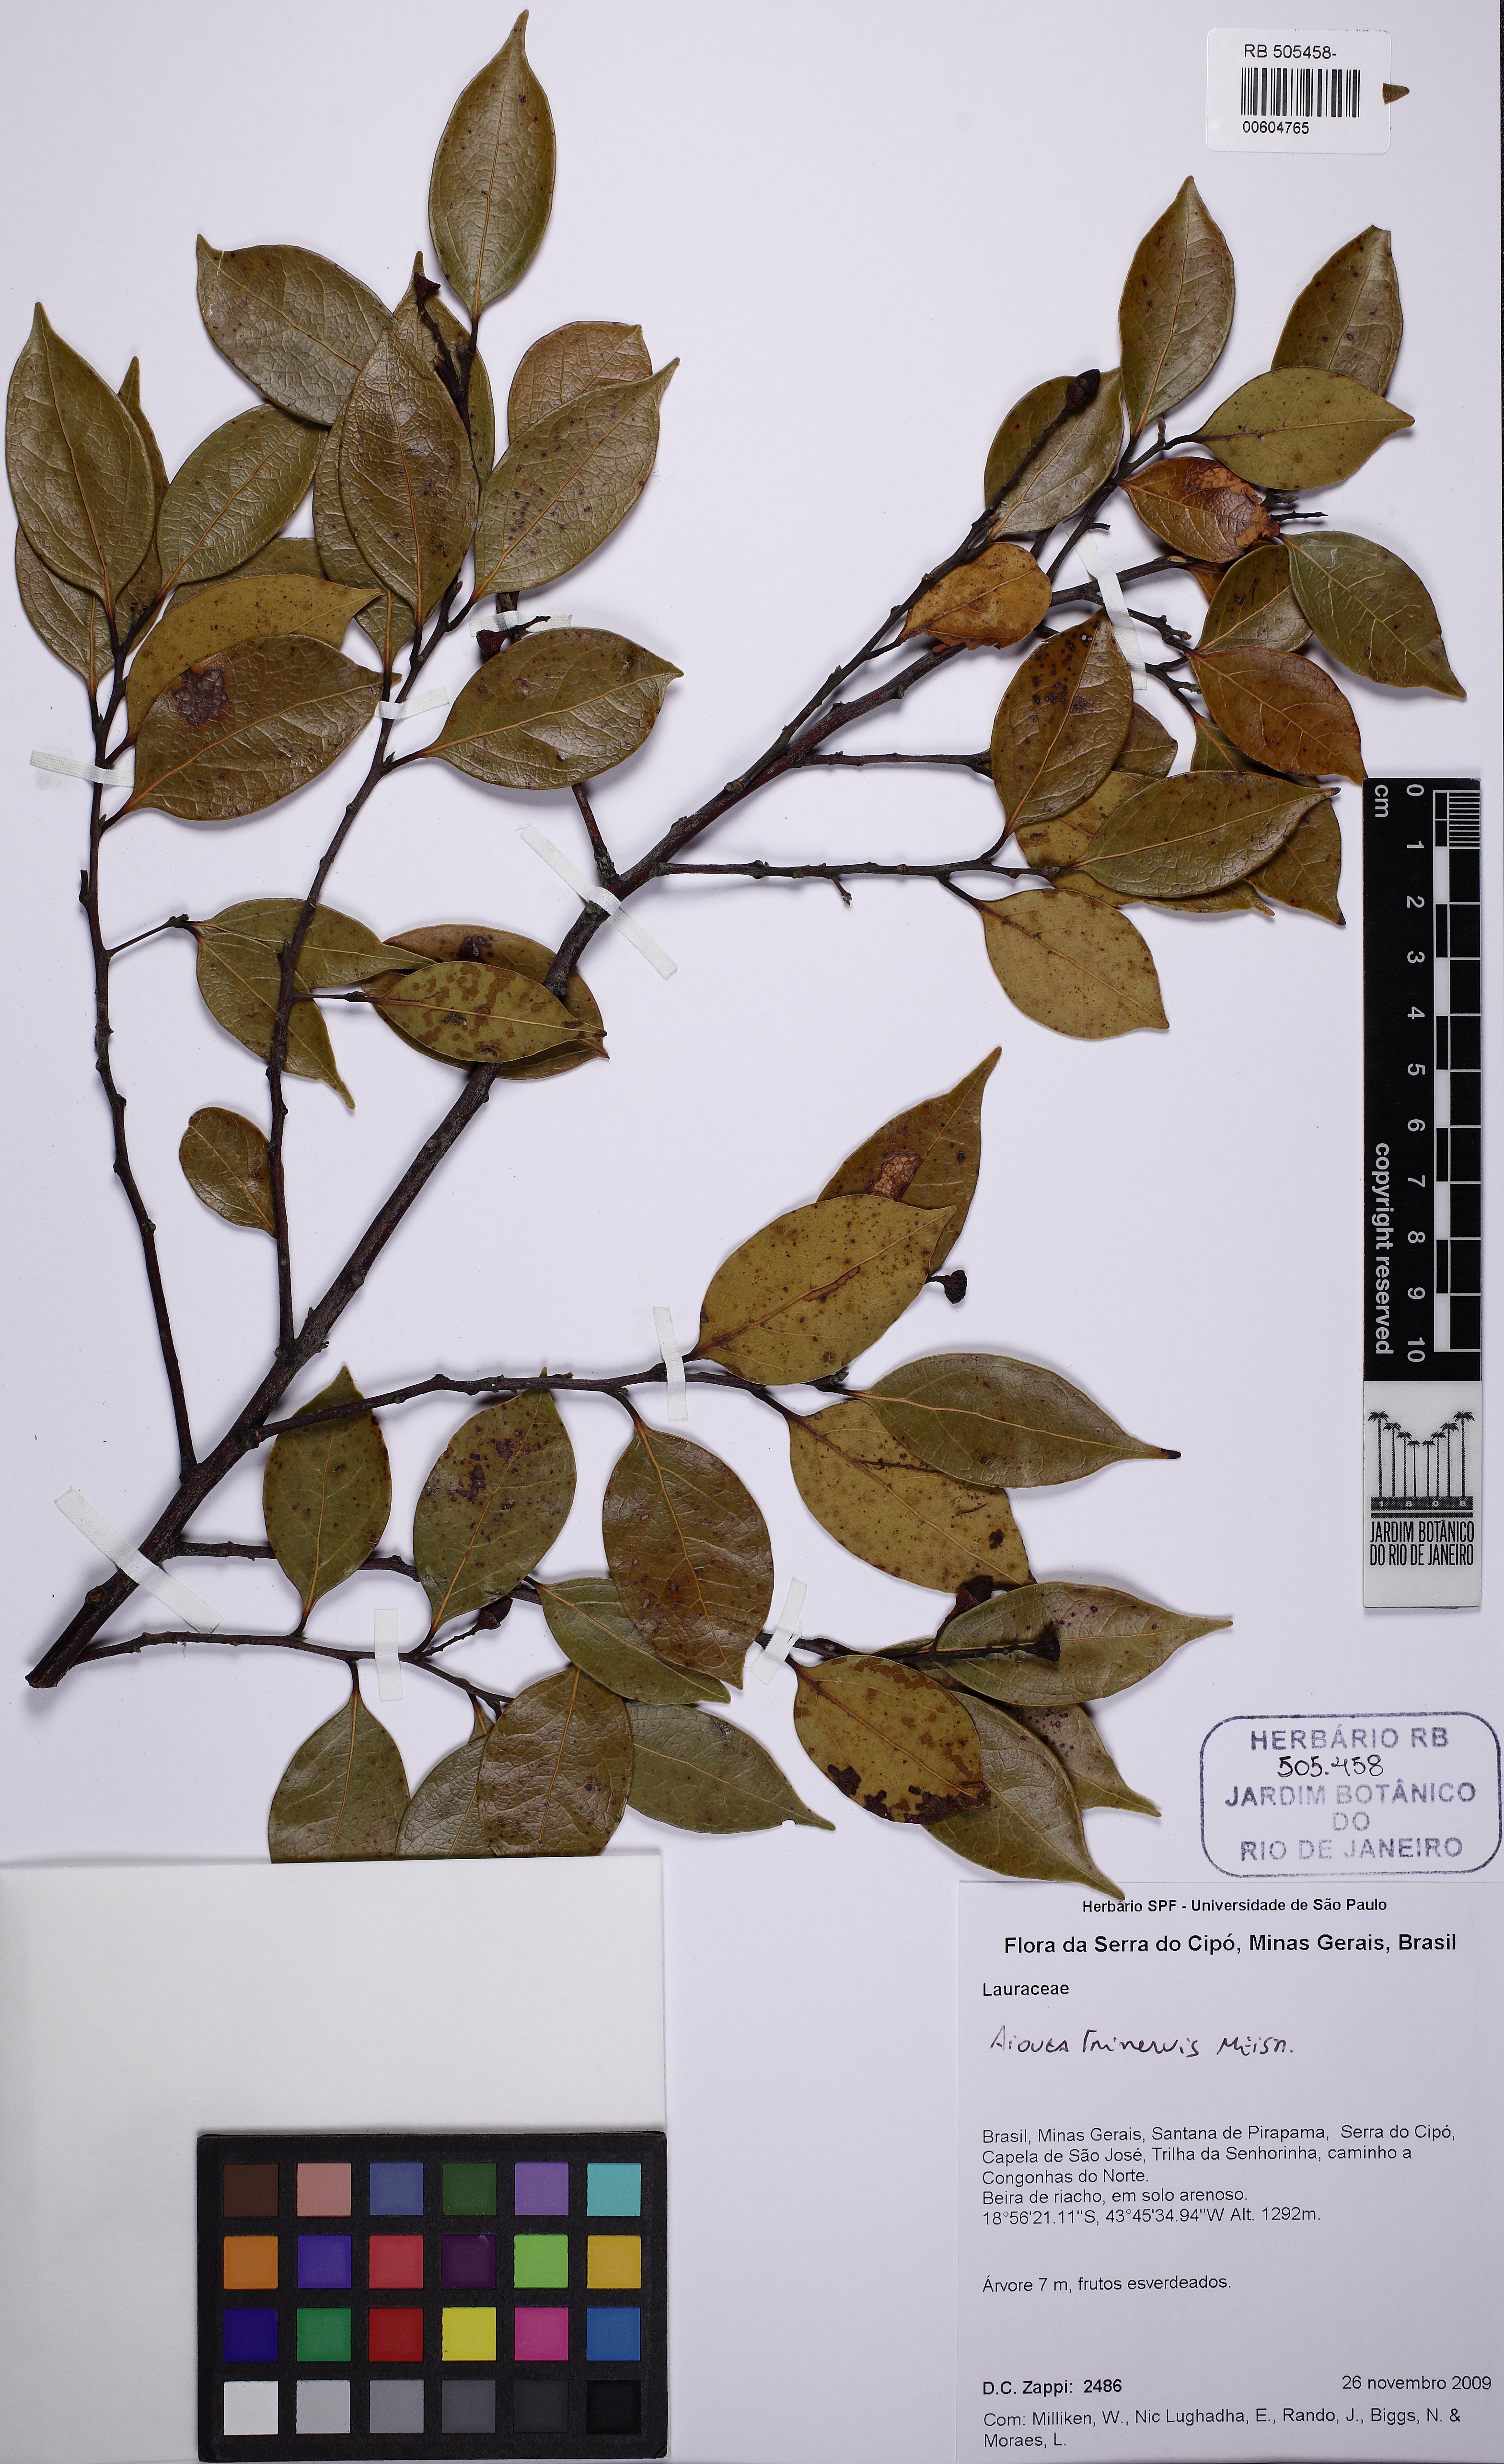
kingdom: Plantae
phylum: Tracheophyta
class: Magnoliopsida
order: Laurales
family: Lauraceae
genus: Mespilodaphne
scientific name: Mespilodaphne corymbosa
